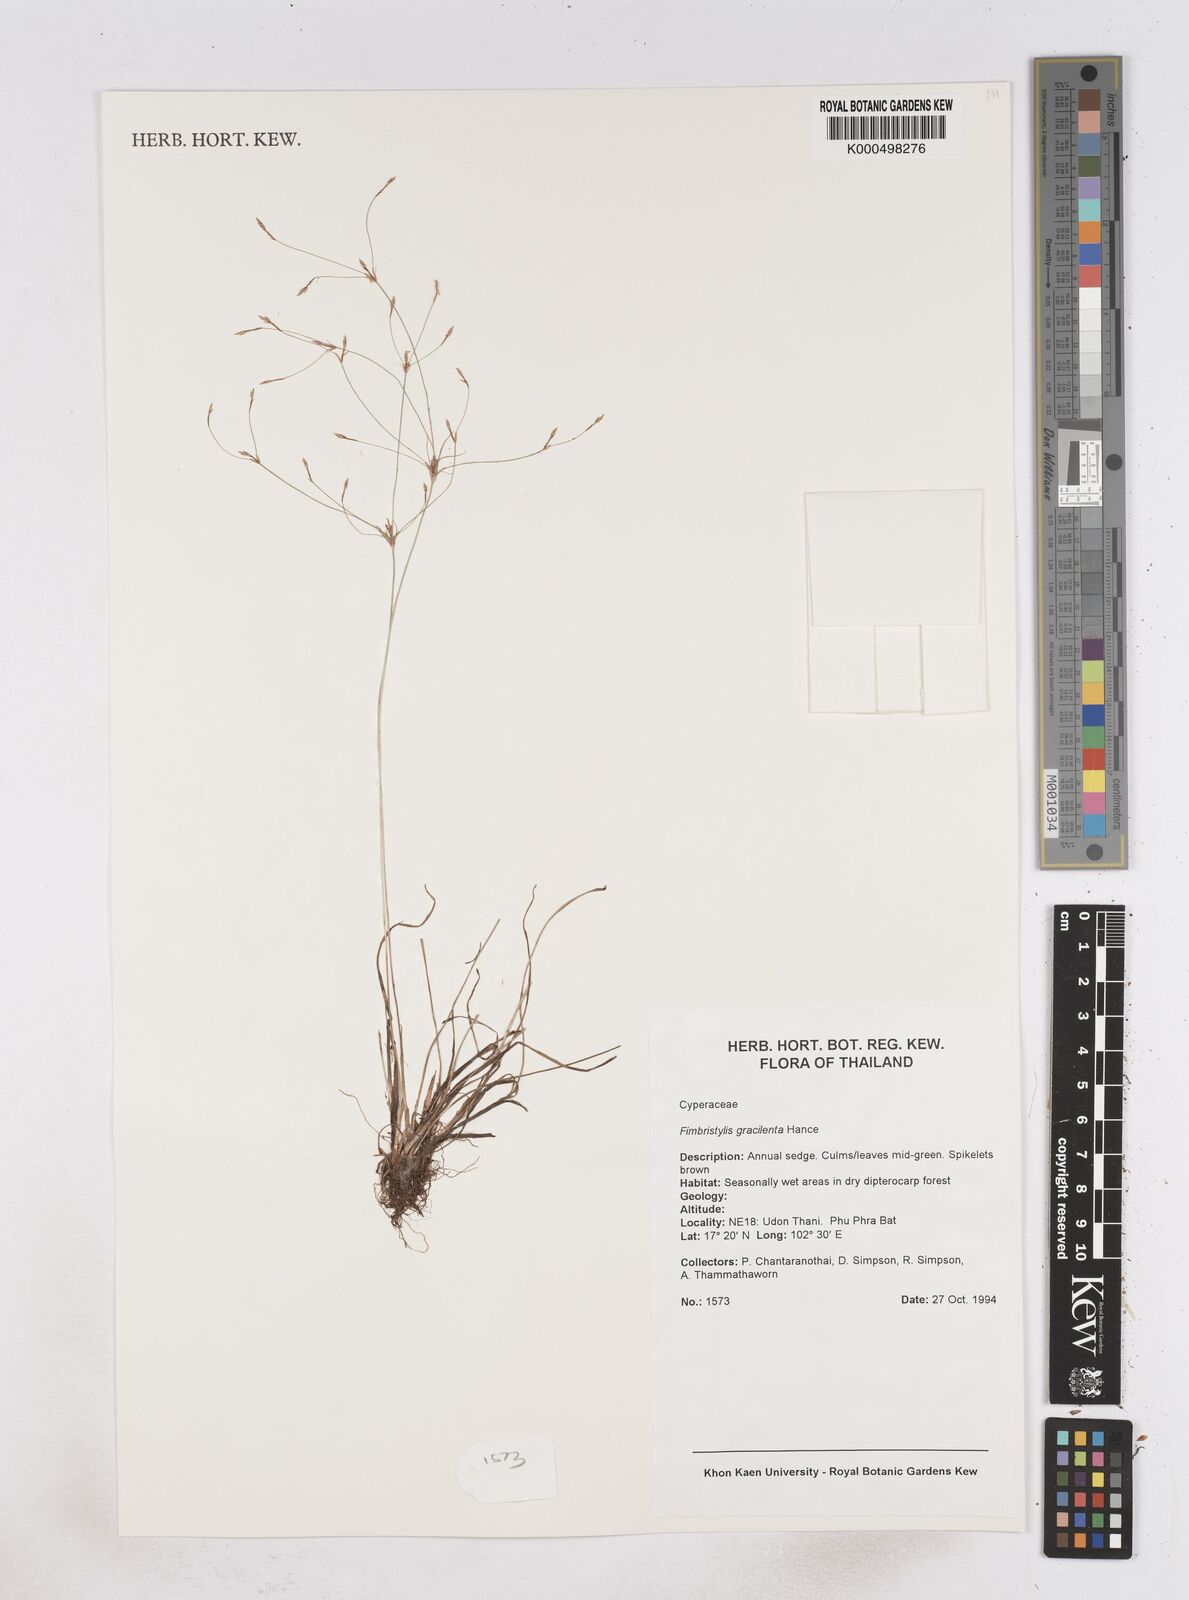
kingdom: Plantae
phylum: Tracheophyta
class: Liliopsida
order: Poales
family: Cyperaceae
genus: Fimbristylis
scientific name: Fimbristylis gracilenta
